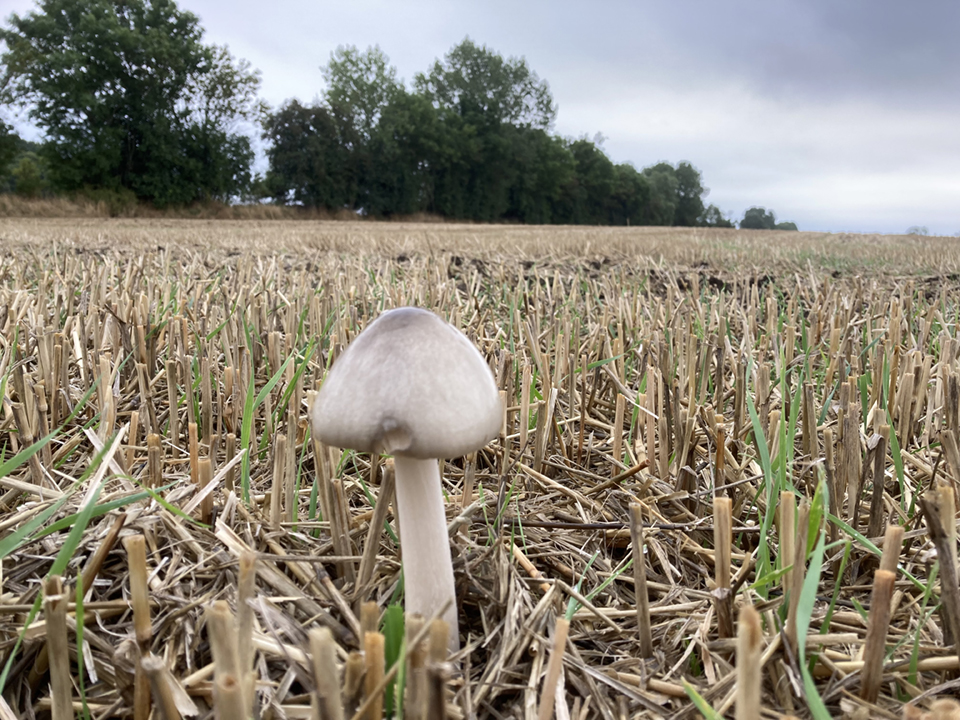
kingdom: Fungi
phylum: Basidiomycota
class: Agaricomycetes
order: Agaricales
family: Pluteaceae
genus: Volvopluteus
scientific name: Volvopluteus gloiocephalus
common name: høj posesvamp
